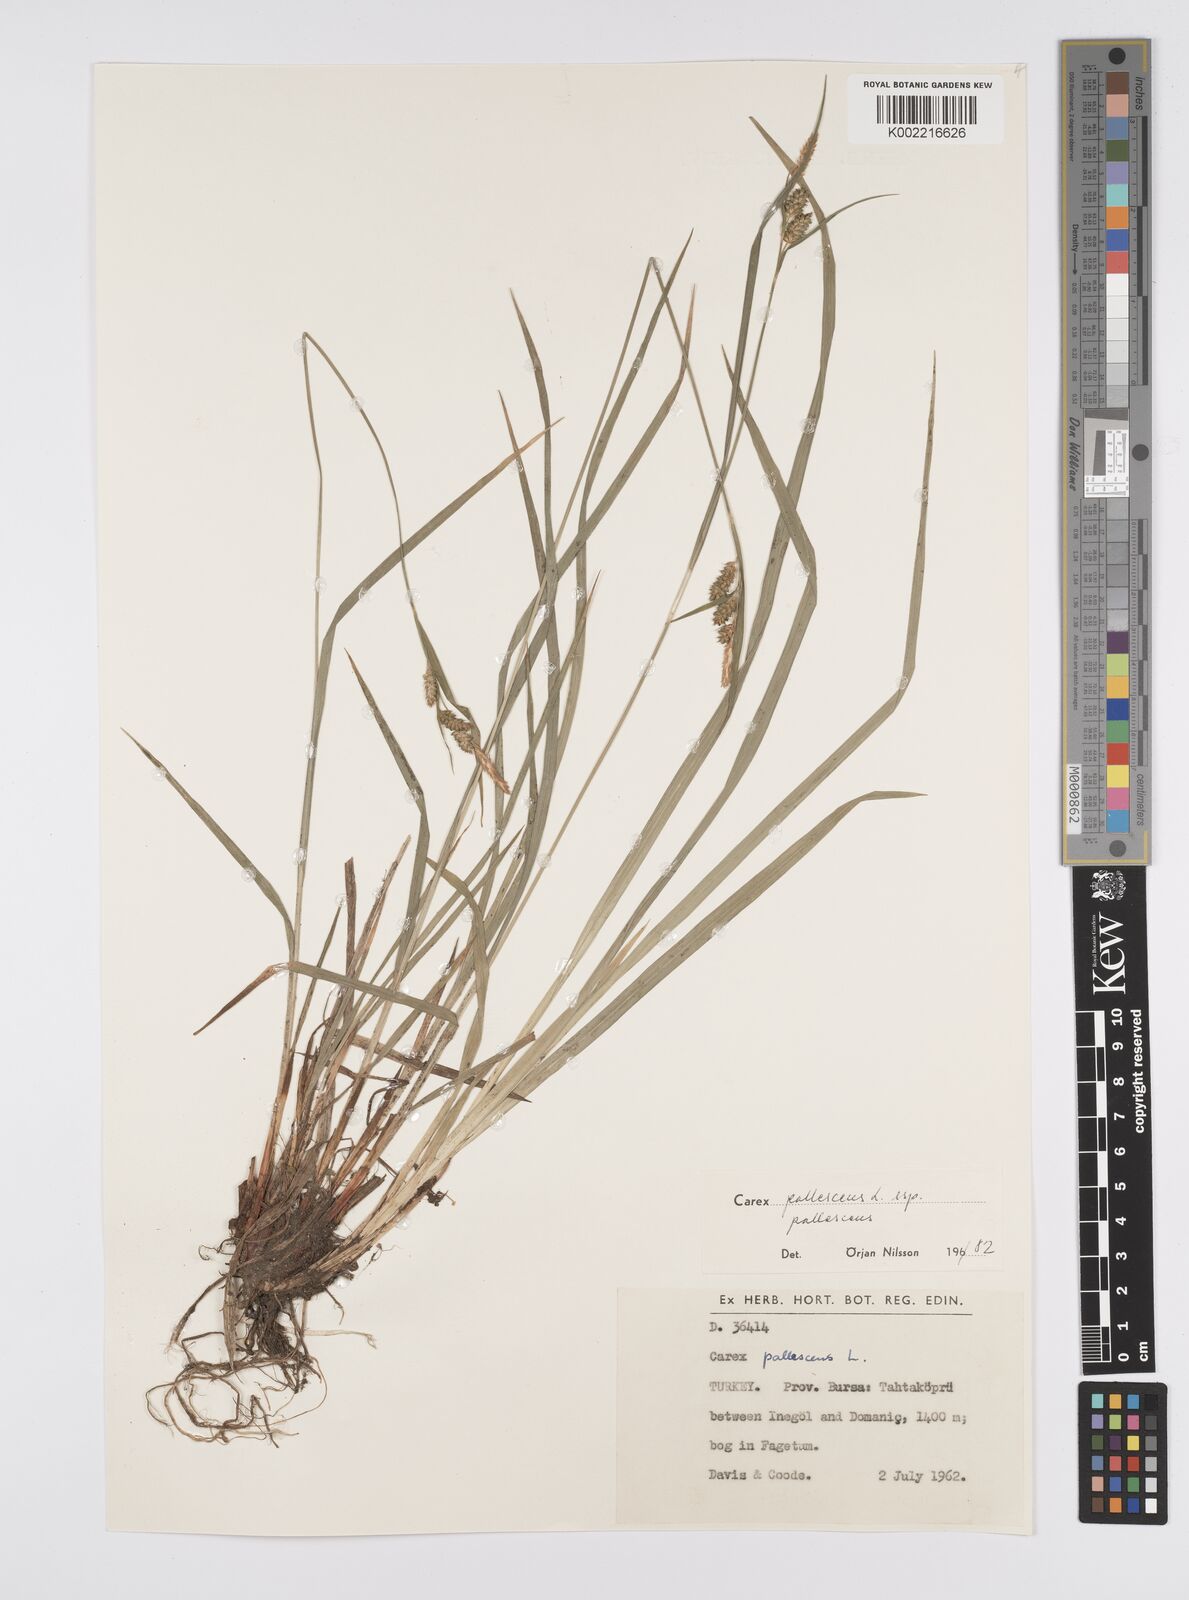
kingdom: Plantae
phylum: Tracheophyta
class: Liliopsida
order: Poales
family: Cyperaceae
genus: Carex
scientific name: Carex pallescens
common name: Pale sedge
